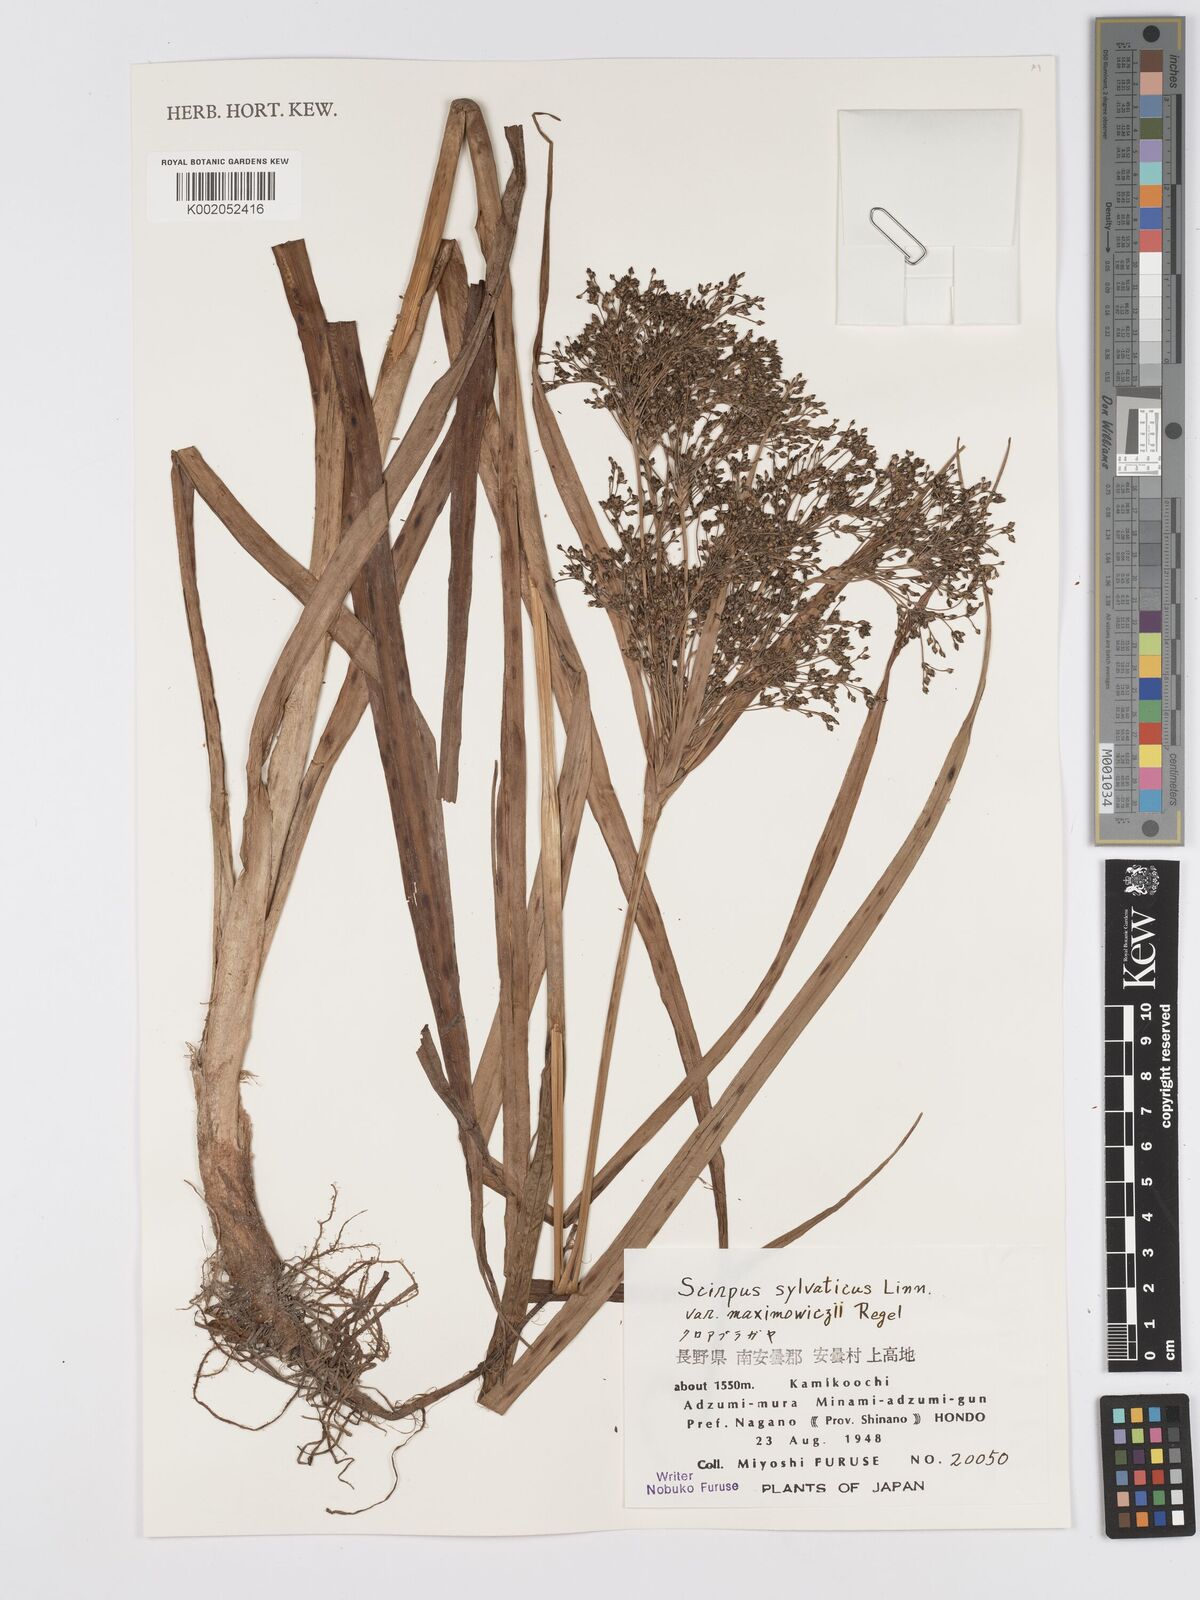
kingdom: Plantae
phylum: Tracheophyta
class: Liliopsida
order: Poales
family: Cyperaceae
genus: Scirpus
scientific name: Scirpus sylvaticus
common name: Wood club-rush
